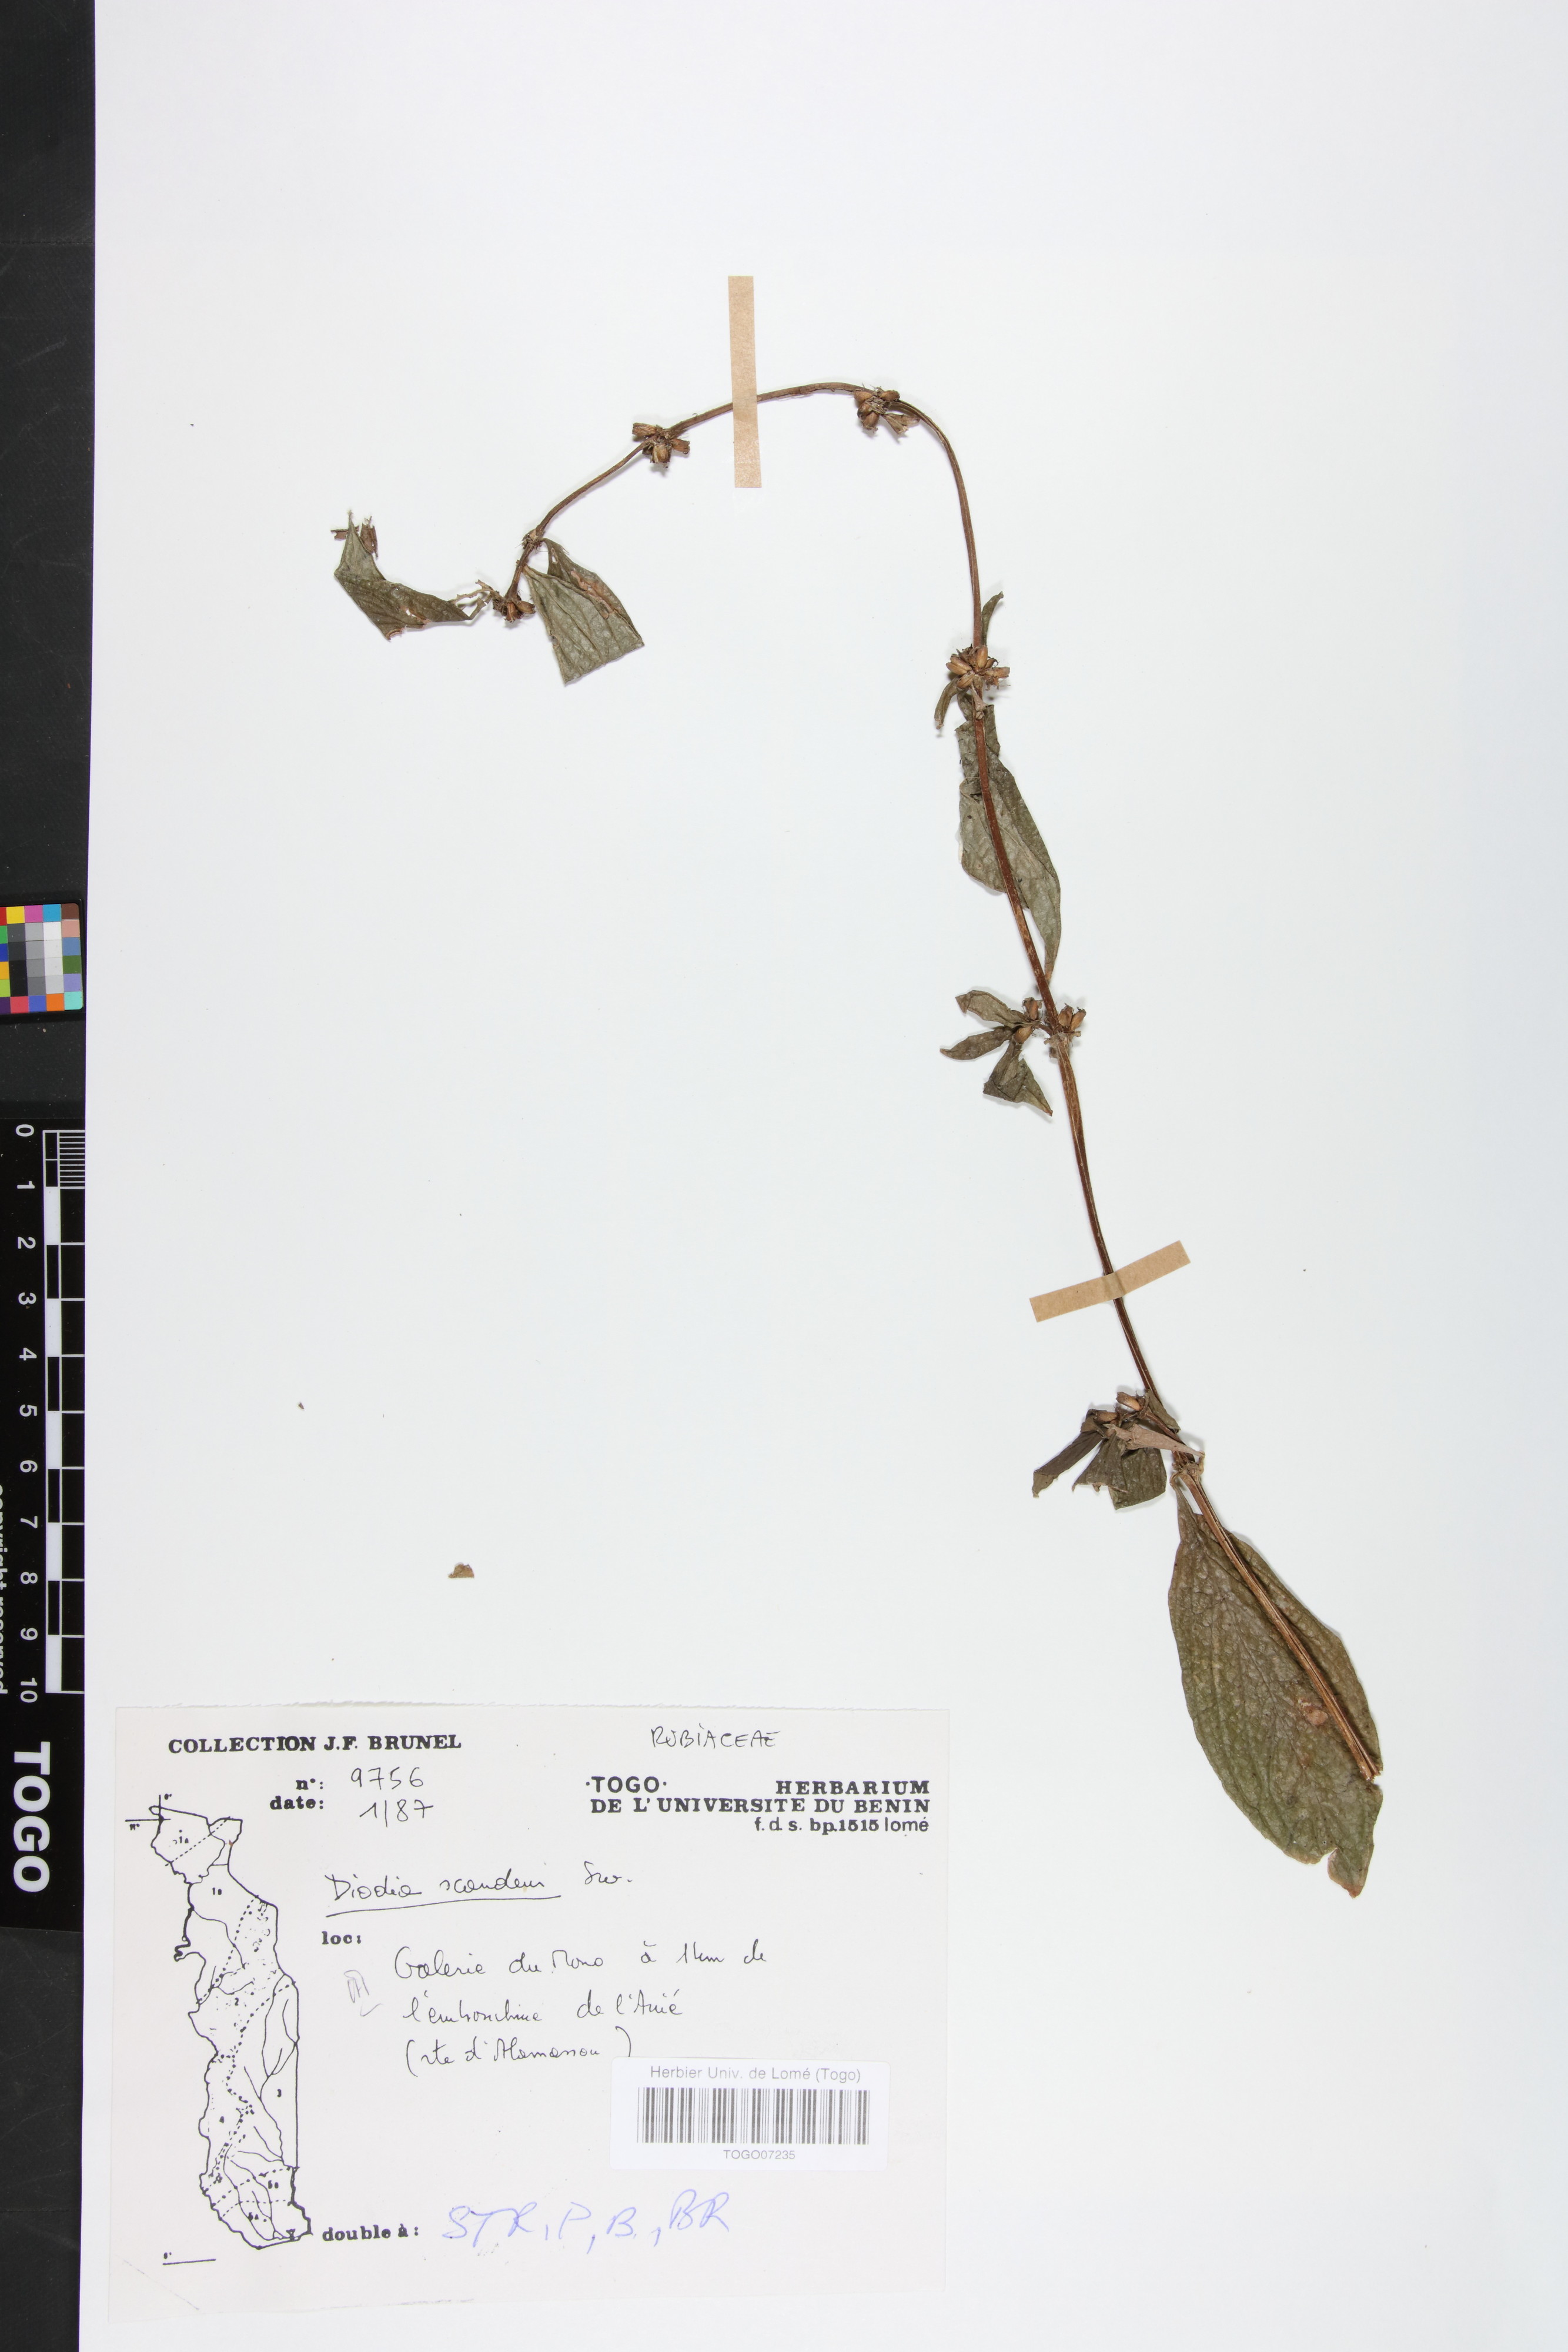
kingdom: Plantae
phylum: Tracheophyta
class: Magnoliopsida
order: Gentianales
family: Rubiaceae
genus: Hexasepalum
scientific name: Hexasepalum scandens
